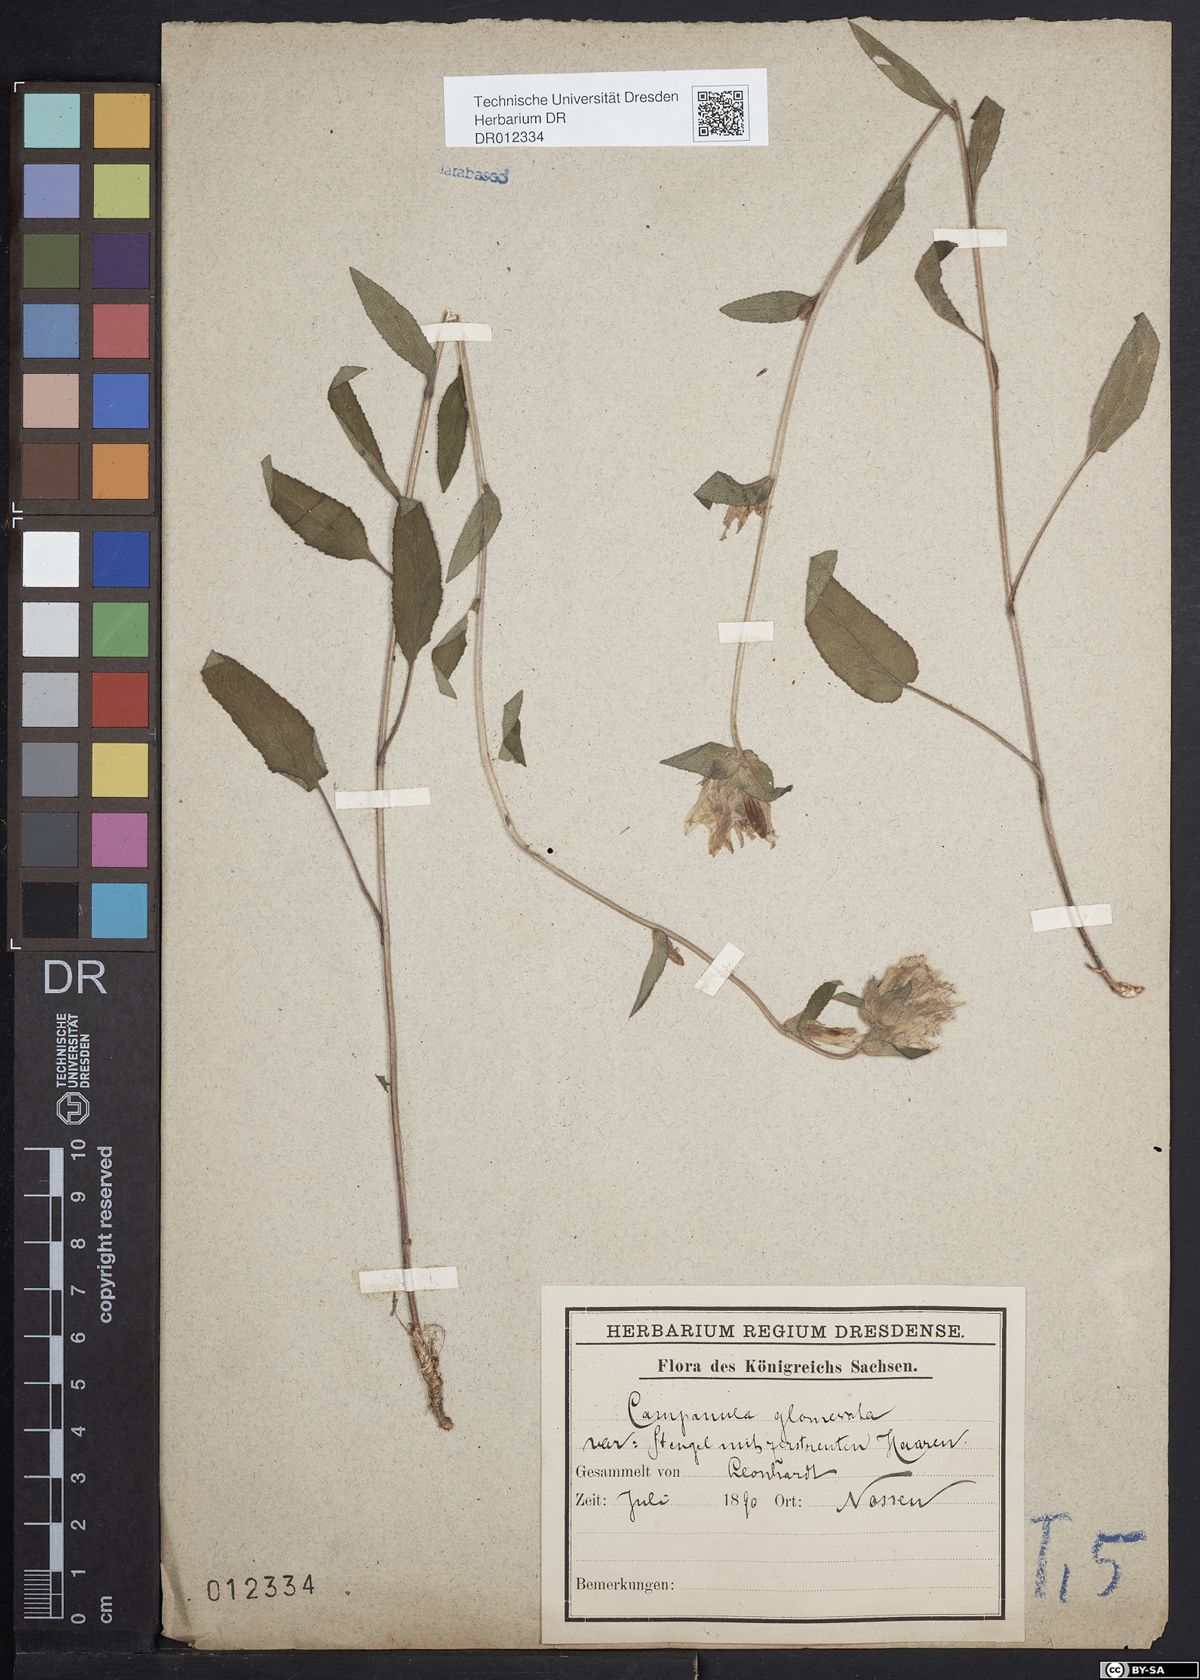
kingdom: Plantae
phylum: Tracheophyta
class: Magnoliopsida
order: Asterales
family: Campanulaceae
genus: Campanula
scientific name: Campanula glomerata
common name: Clustered bellflower
